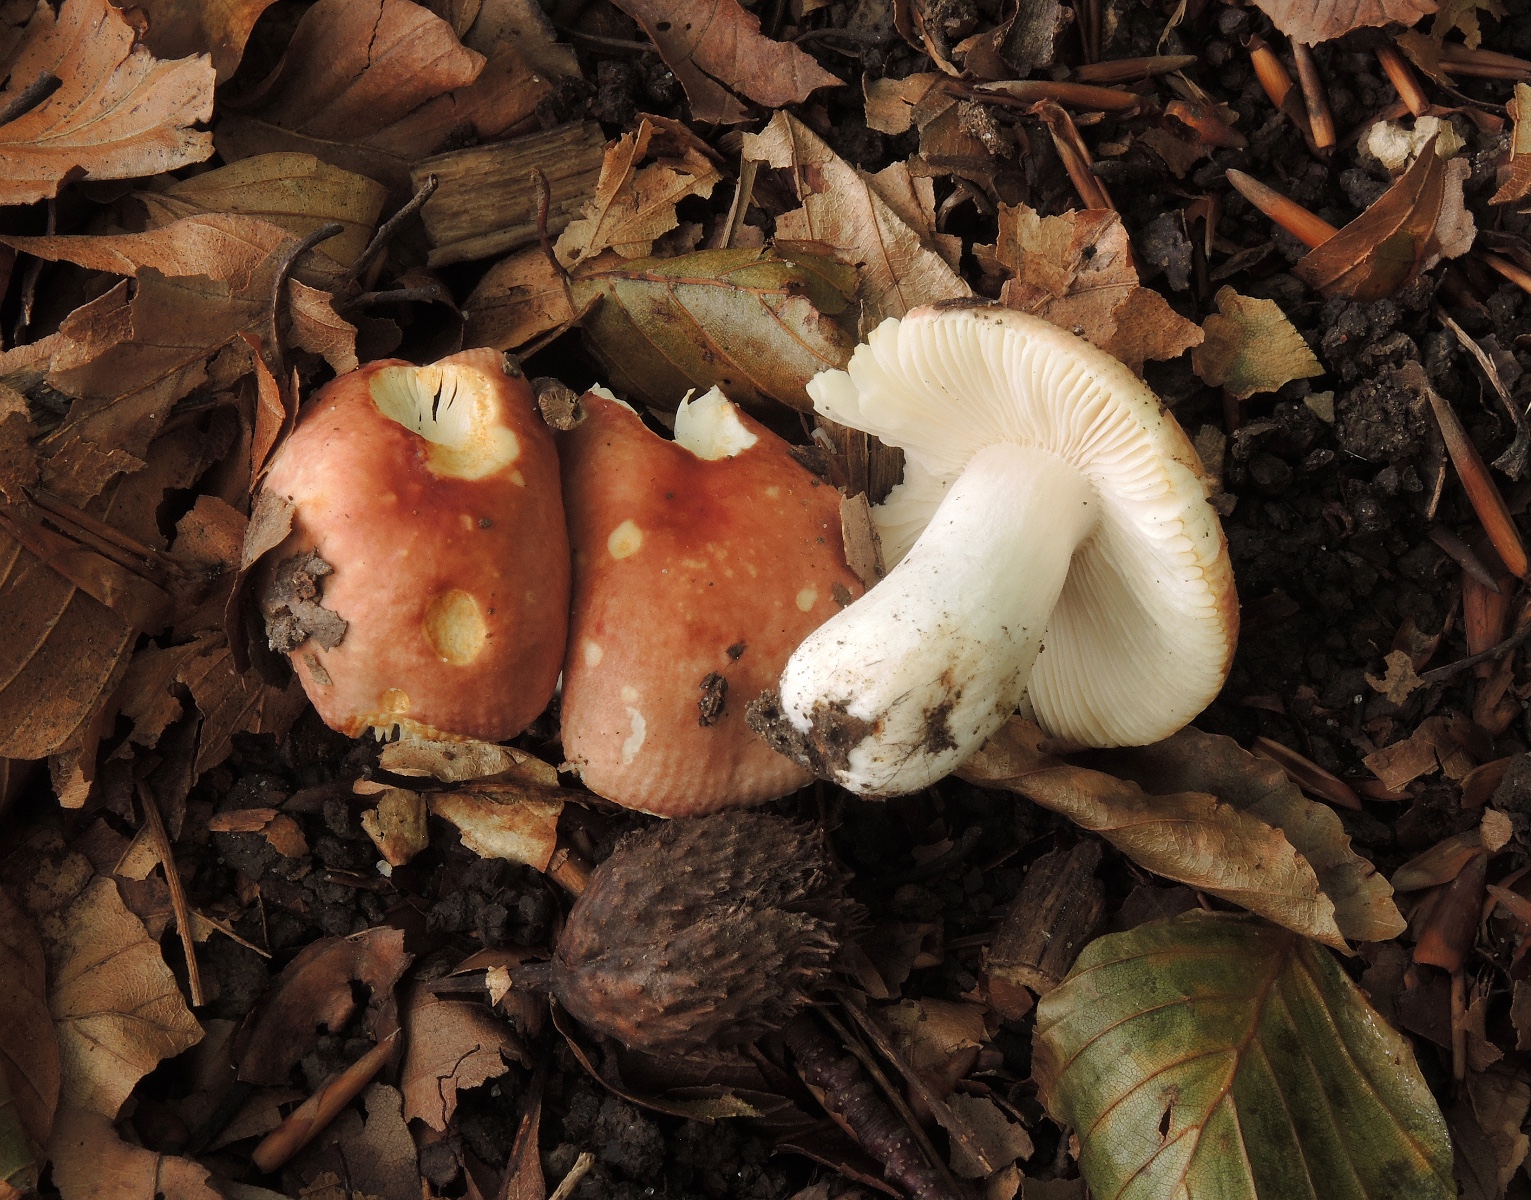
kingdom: Fungi
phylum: Basidiomycota
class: Agaricomycetes
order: Russulales
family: Russulaceae
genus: Russula
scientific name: Russula puellula
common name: gulnende skørhat
